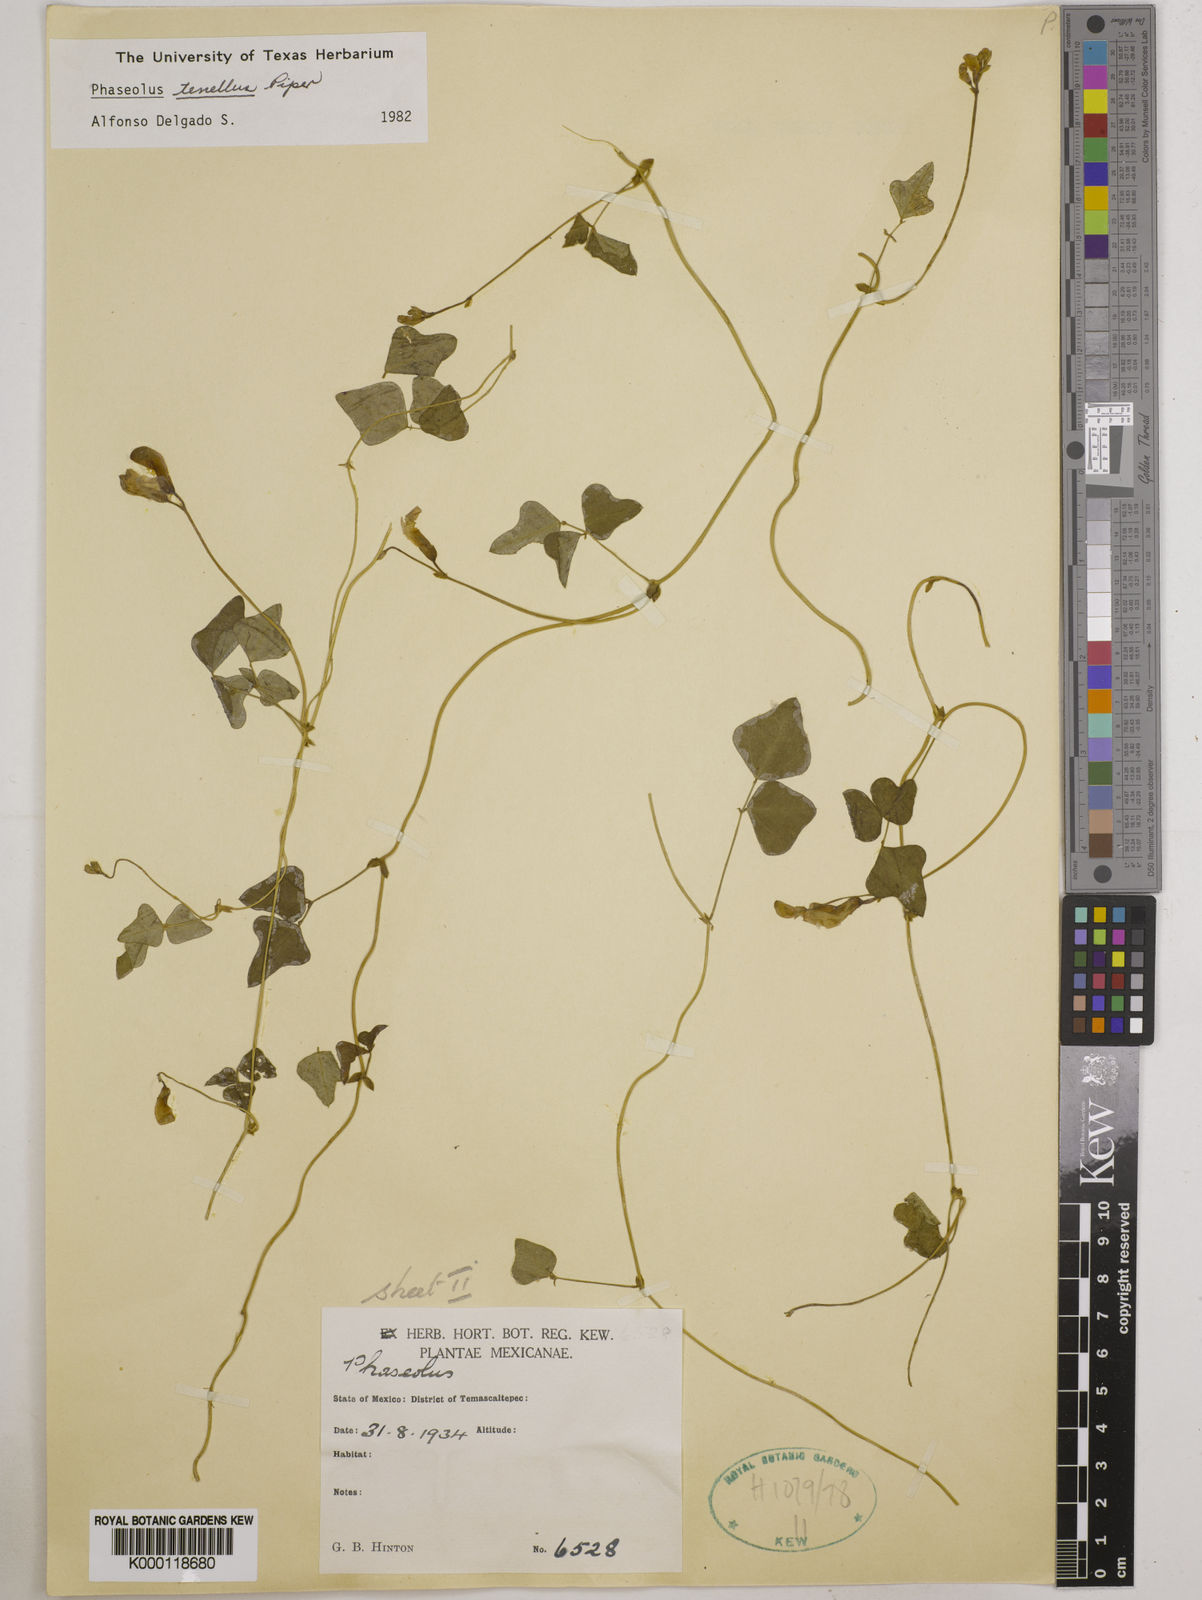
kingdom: Plantae
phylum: Tracheophyta
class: Magnoliopsida
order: Fabales
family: Fabaceae
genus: Phaseolus
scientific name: Phaseolus tenellus
